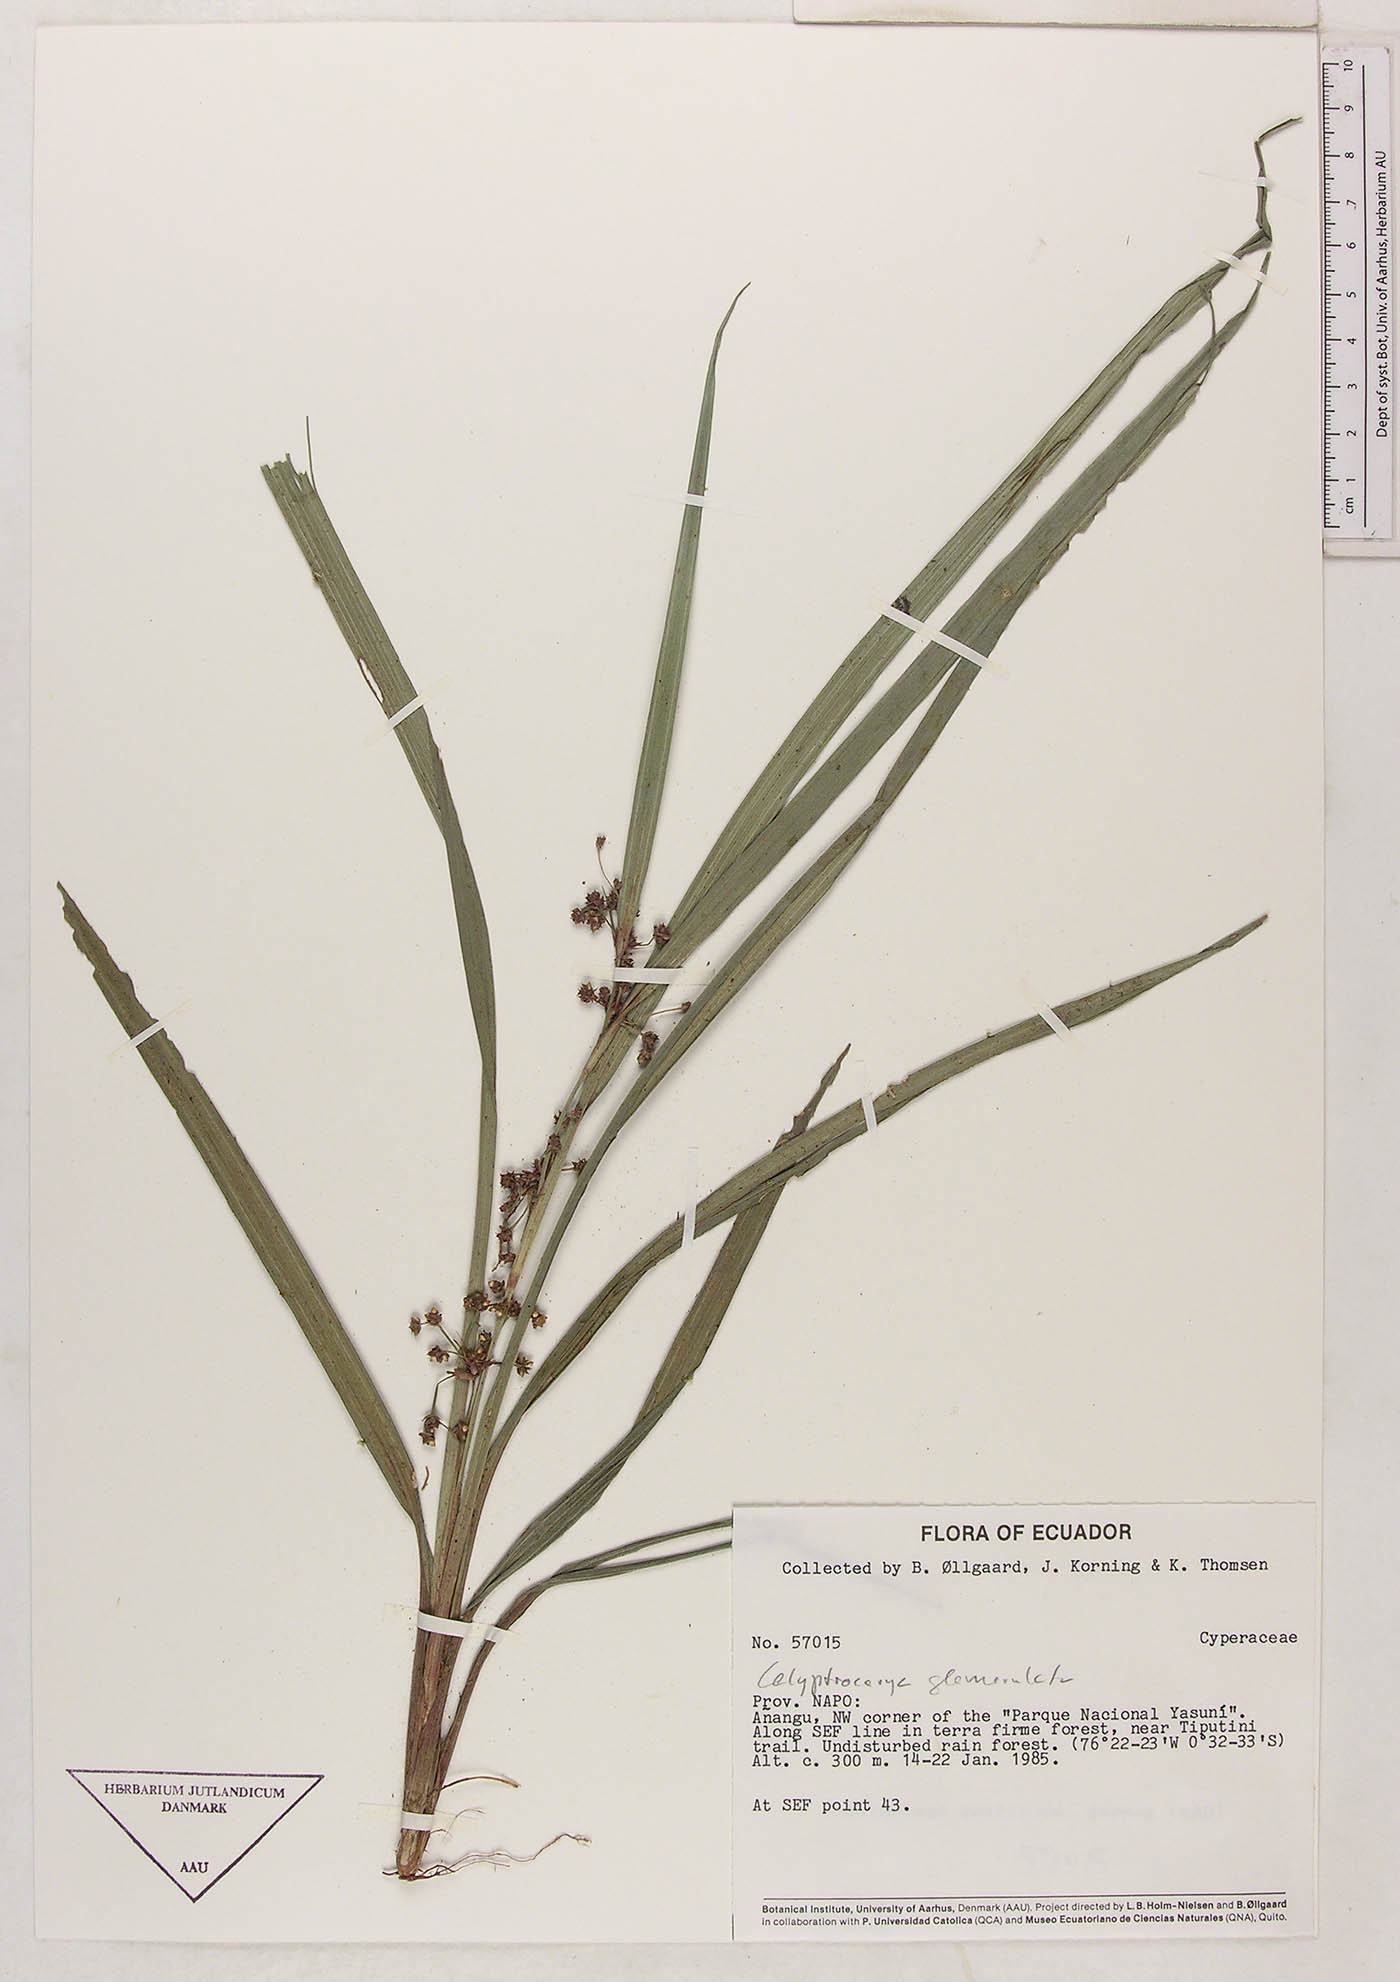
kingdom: Plantae
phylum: Tracheophyta
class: Liliopsida
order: Poales
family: Cyperaceae
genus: Calyptrocarya
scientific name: Calyptrocarya glomerulata
